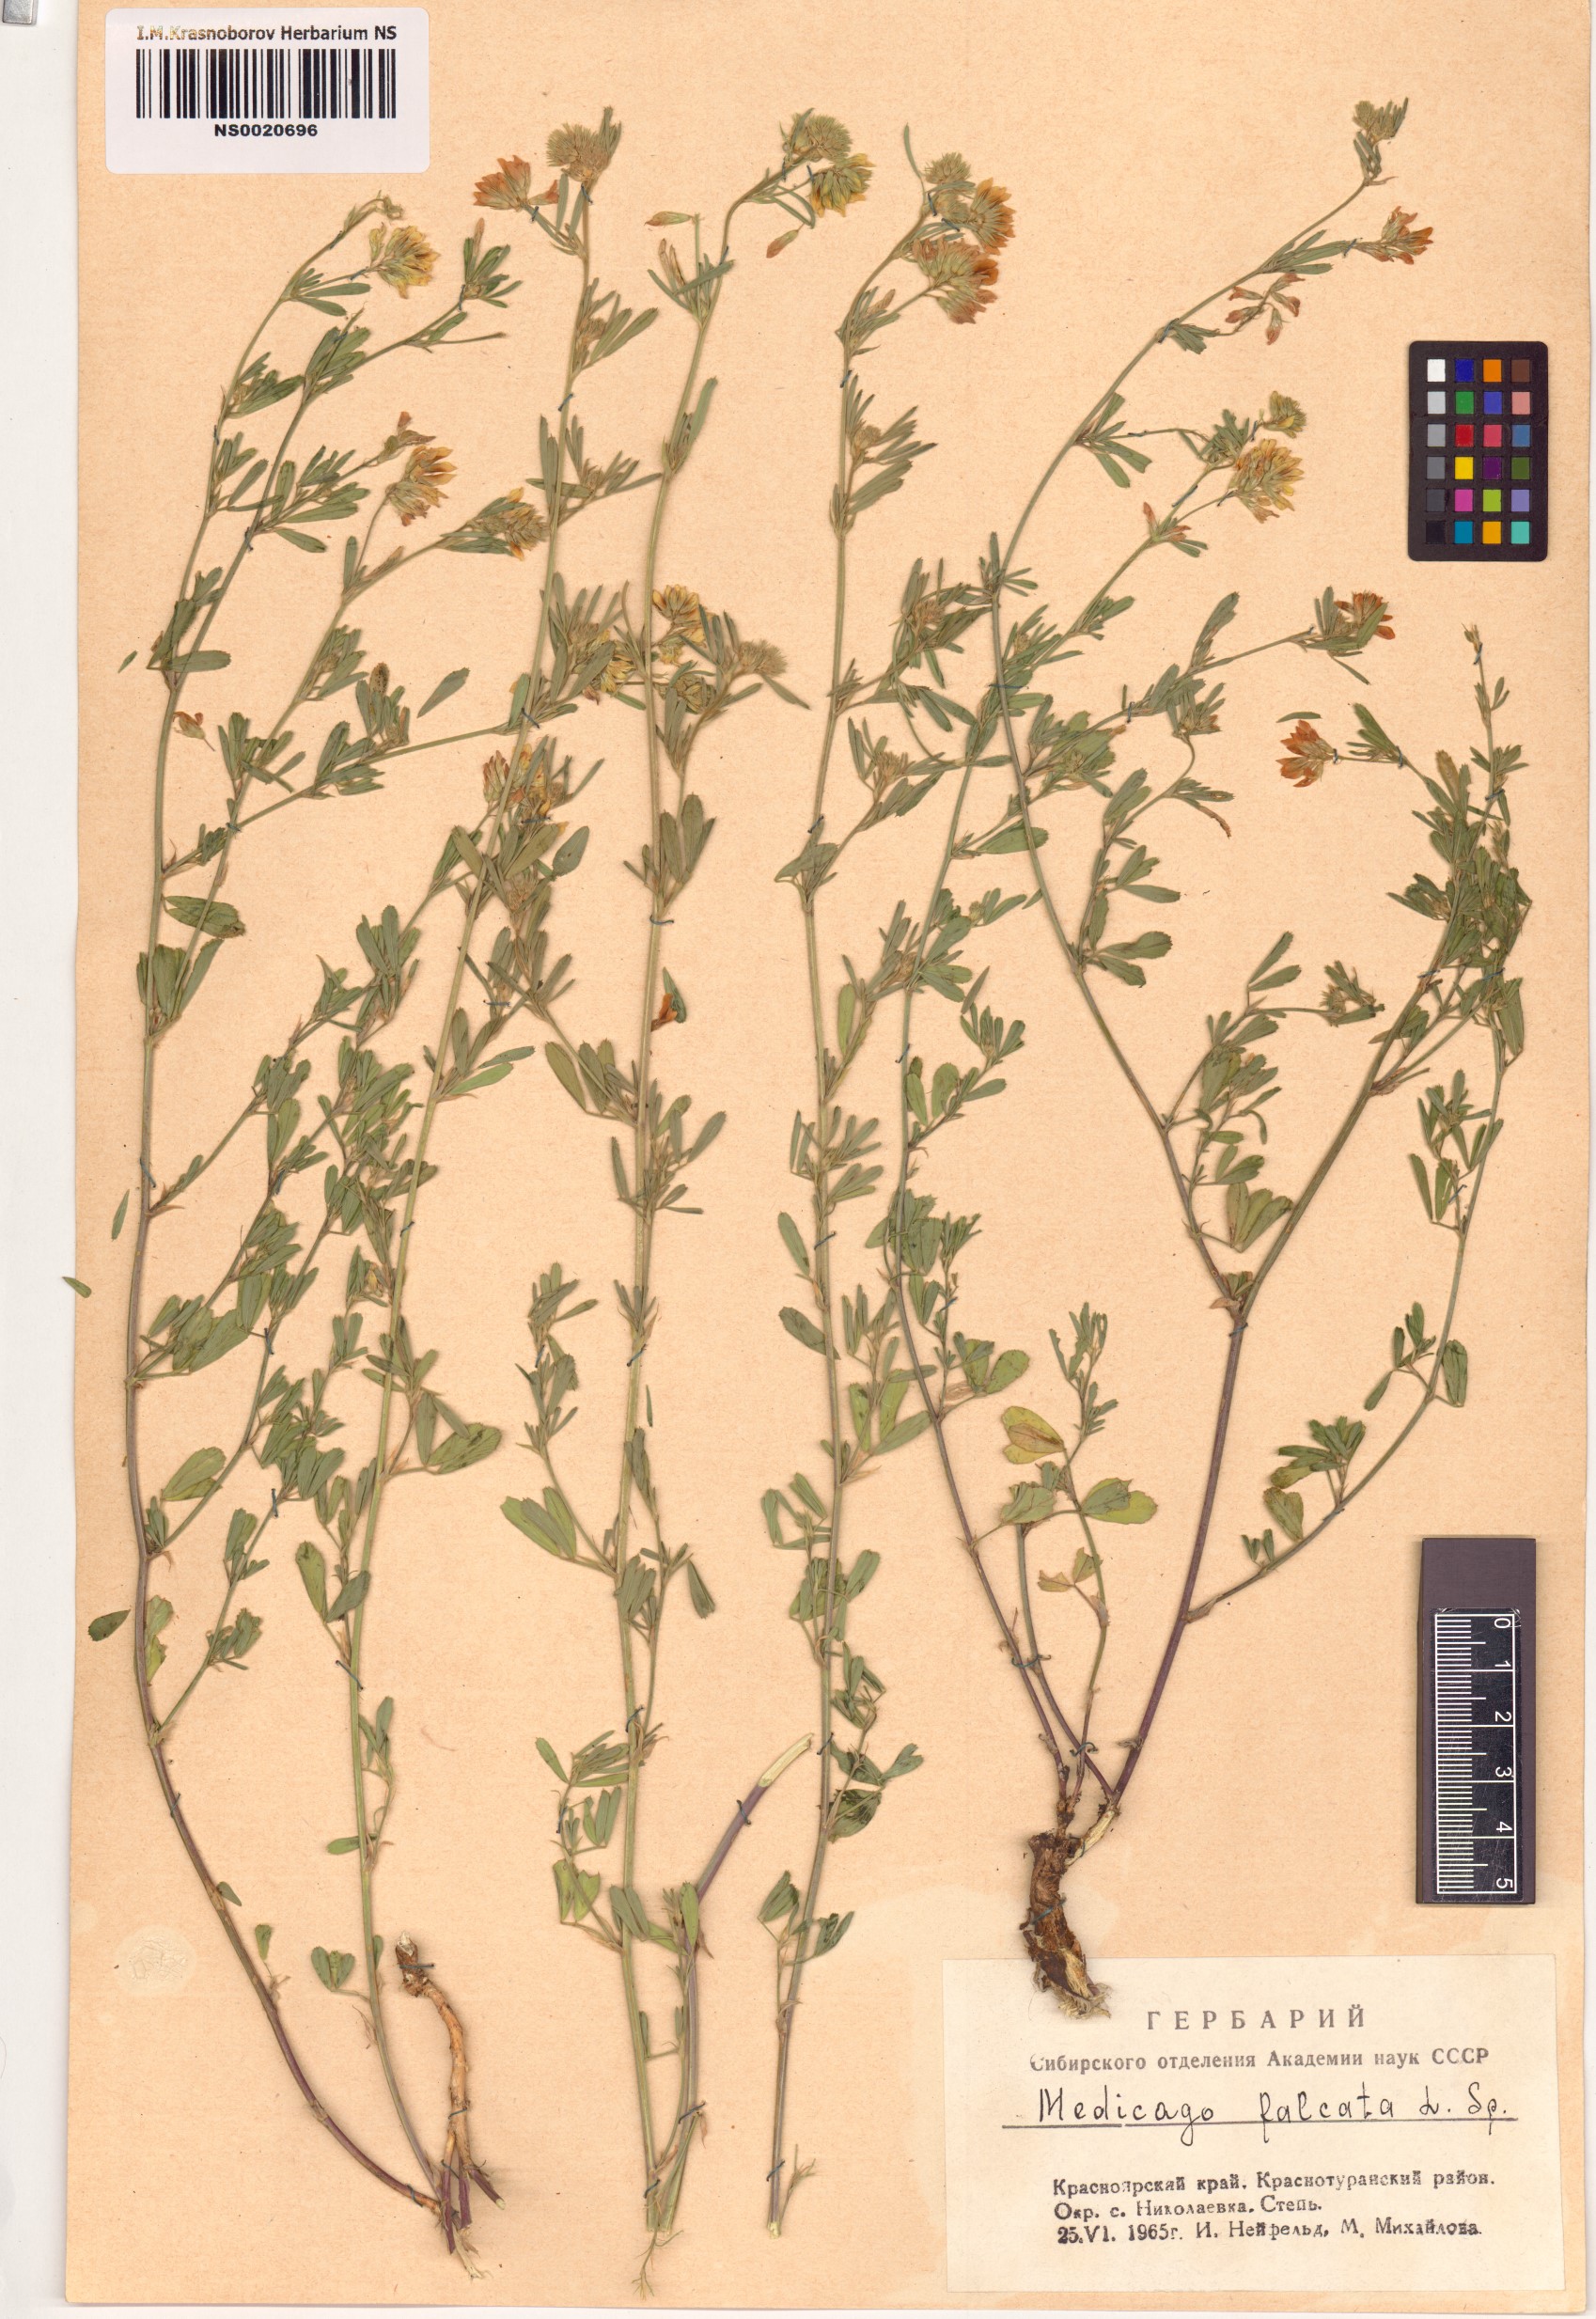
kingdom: Plantae
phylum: Tracheophyta
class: Magnoliopsida
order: Fabales
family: Fabaceae
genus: Medicago
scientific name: Medicago falcata
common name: Sickle medick
